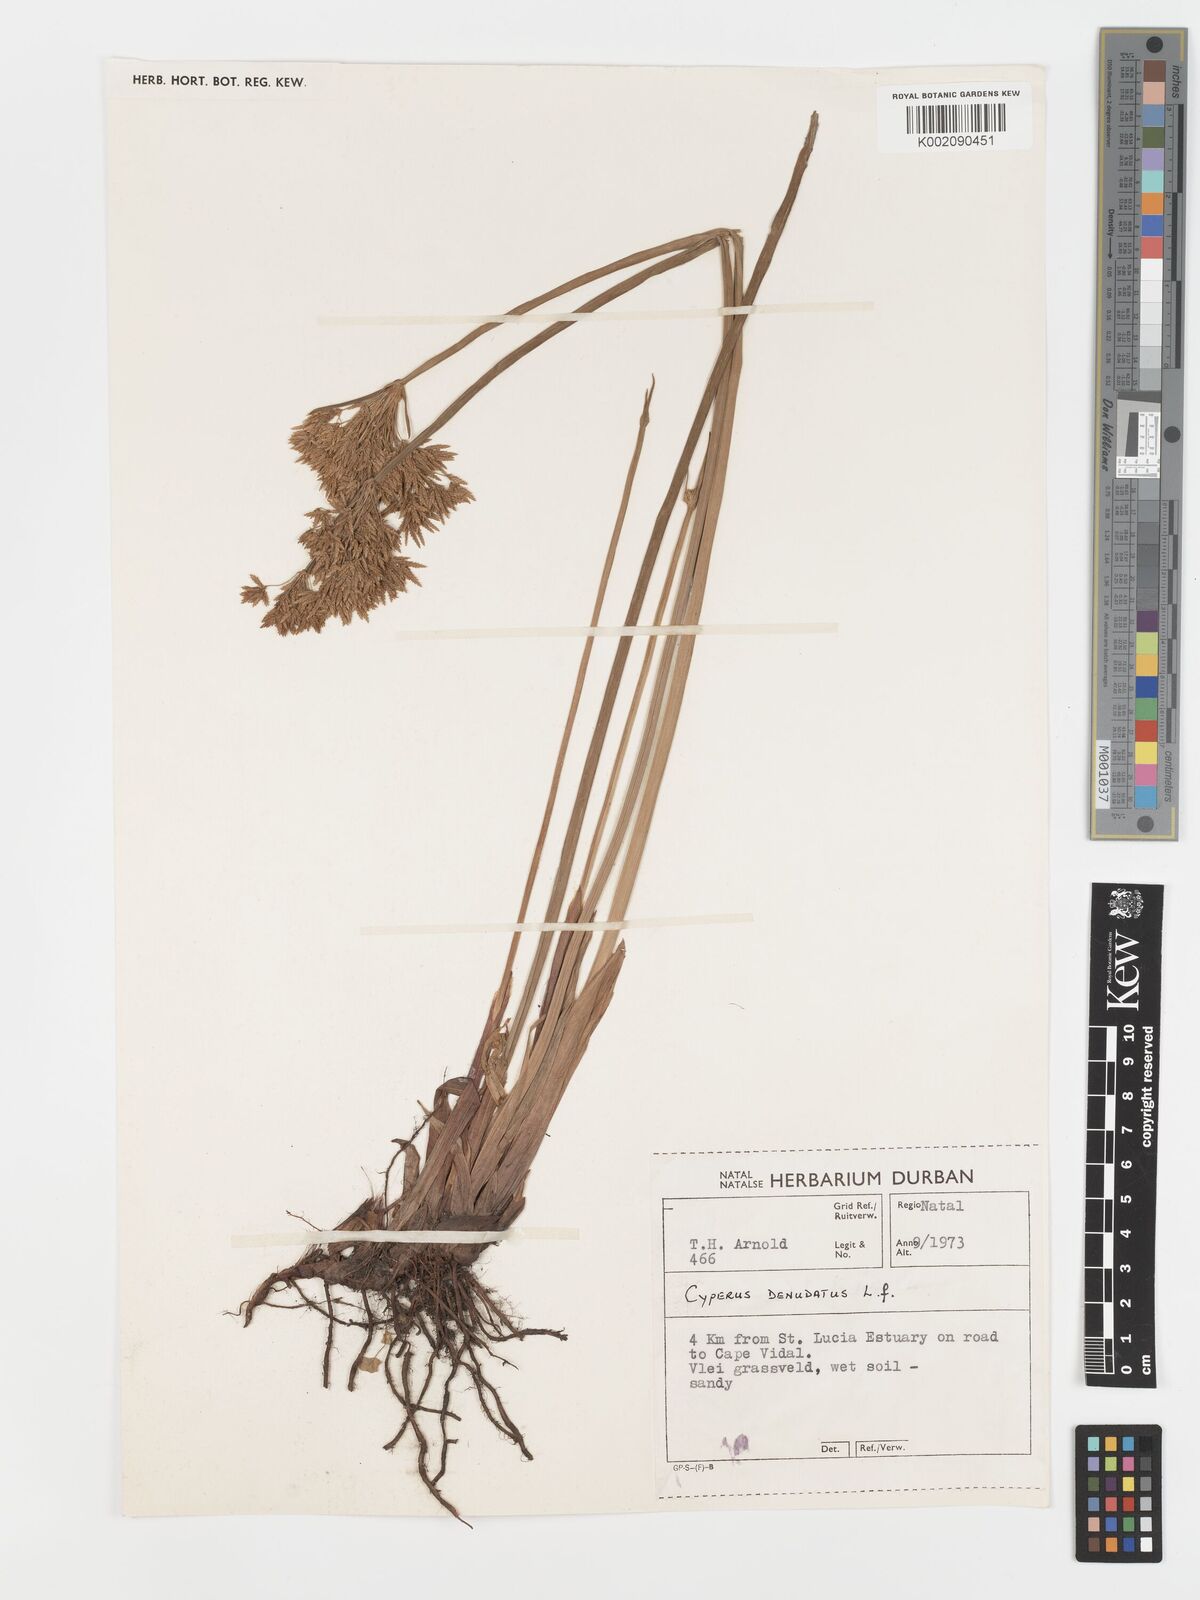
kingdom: Plantae
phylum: Tracheophyta
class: Liliopsida
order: Poales
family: Cyperaceae
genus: Cyperus
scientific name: Cyperus sphaerospermus
